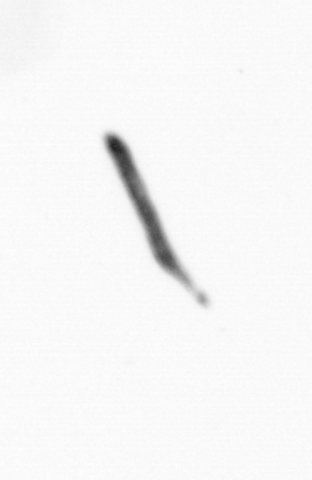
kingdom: Bacteria
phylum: Cyanobacteria
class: Cyanobacteriia
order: Cyanobacteriales
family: Microcoleaceae
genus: Trichodesmium
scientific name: Trichodesmium
